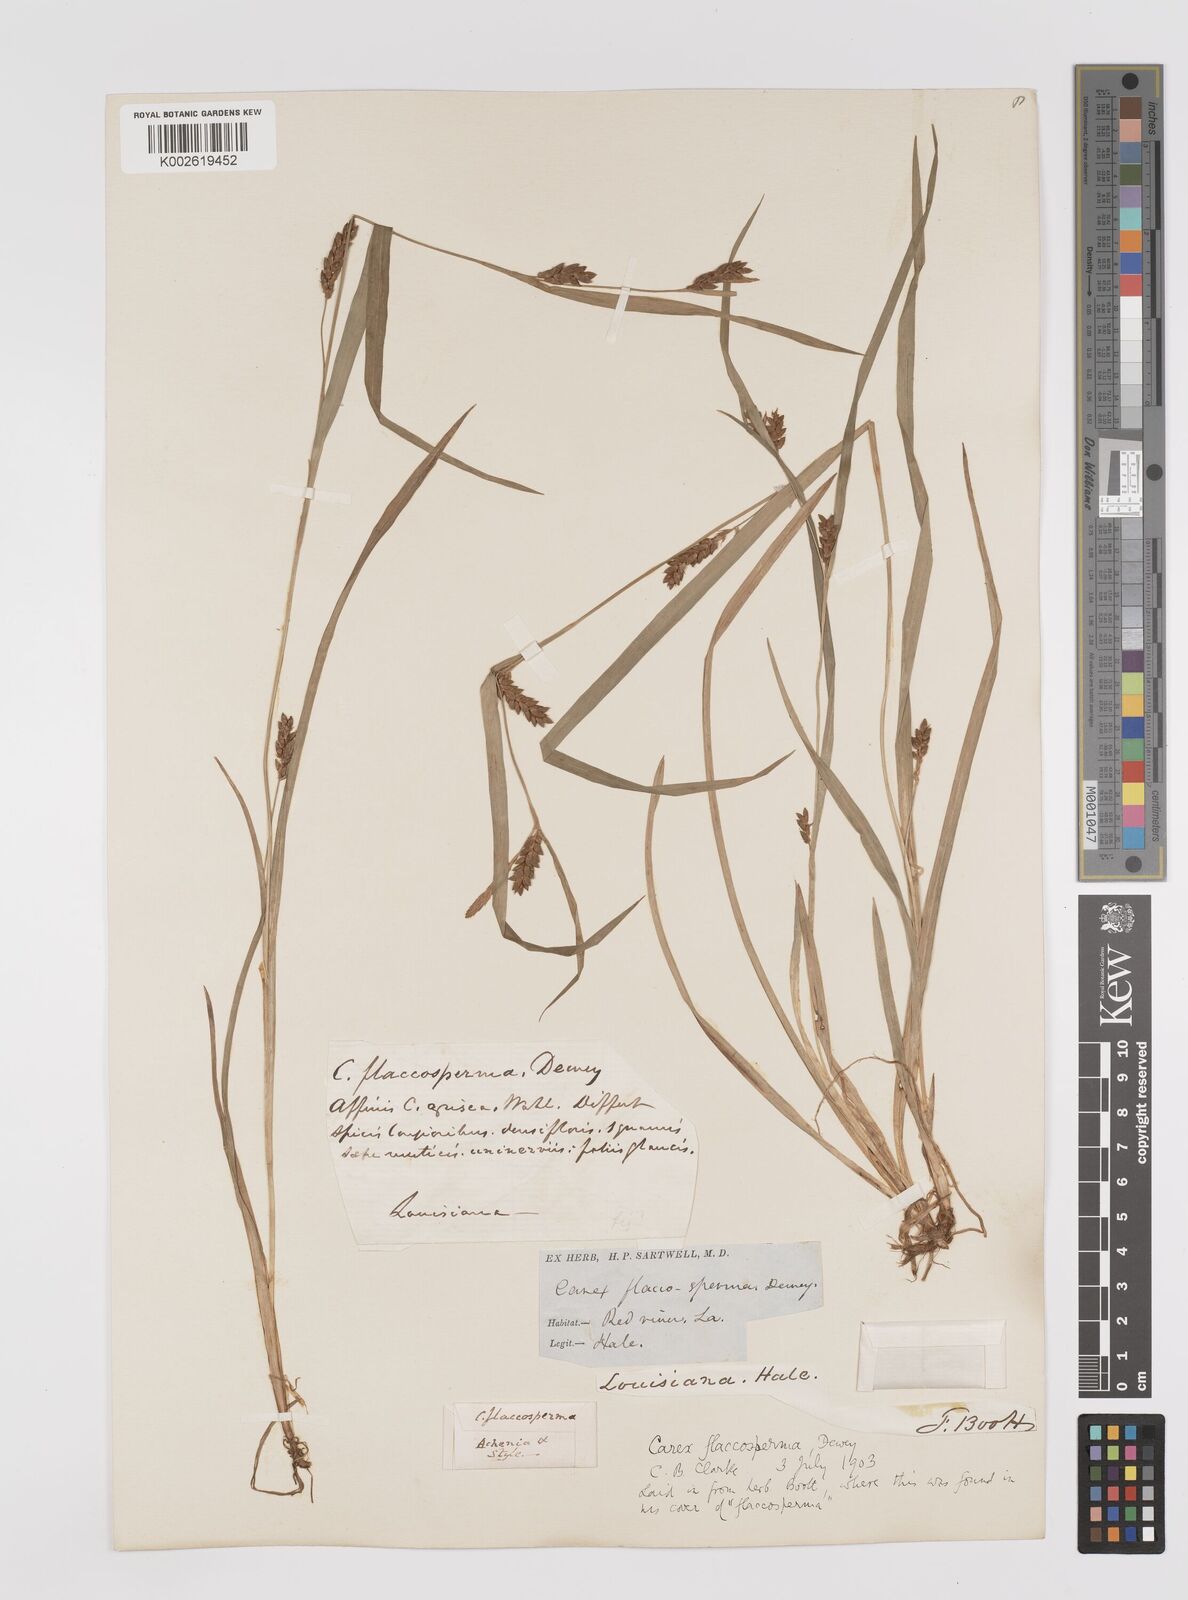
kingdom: Plantae
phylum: Tracheophyta
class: Liliopsida
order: Poales
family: Cyperaceae
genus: Carex
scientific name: Carex flaccosperma
